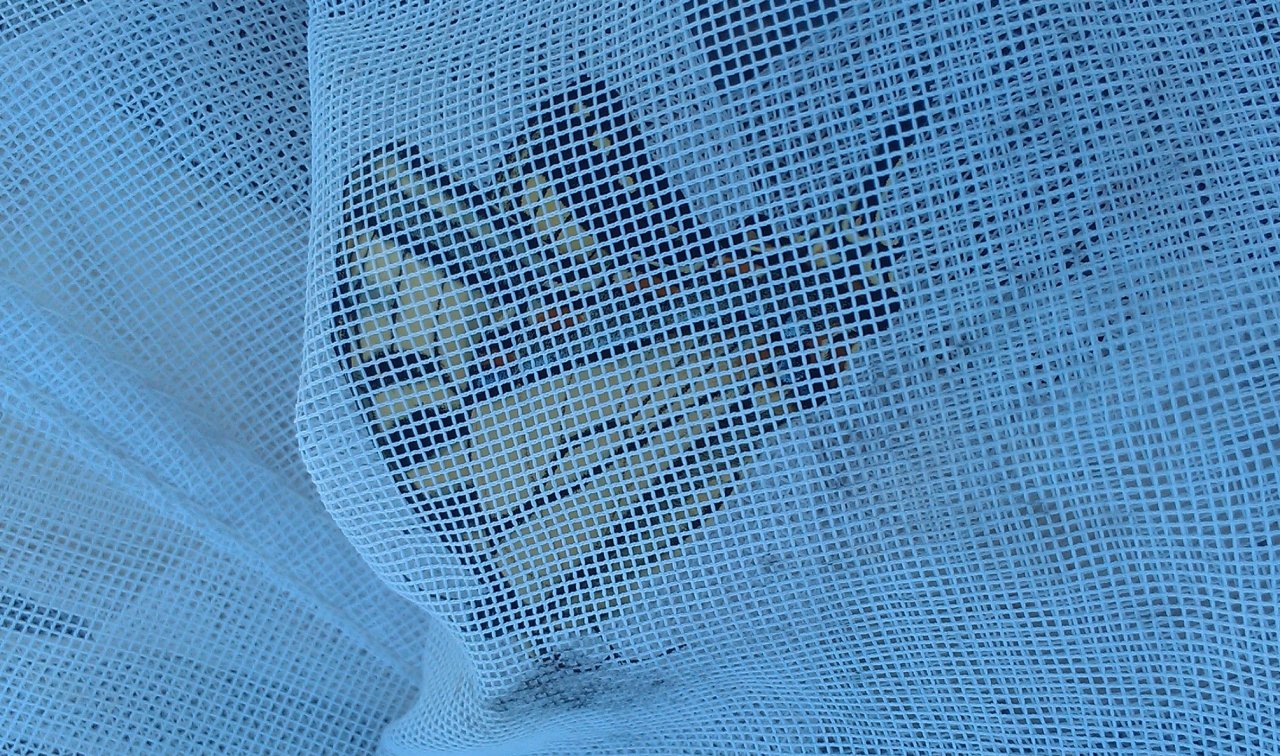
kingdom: Animalia
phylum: Arthropoda
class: Insecta
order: Lepidoptera
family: Papilionidae
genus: Pterourus
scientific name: Pterourus canadensis
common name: Canadian Tiger Swallowtail
